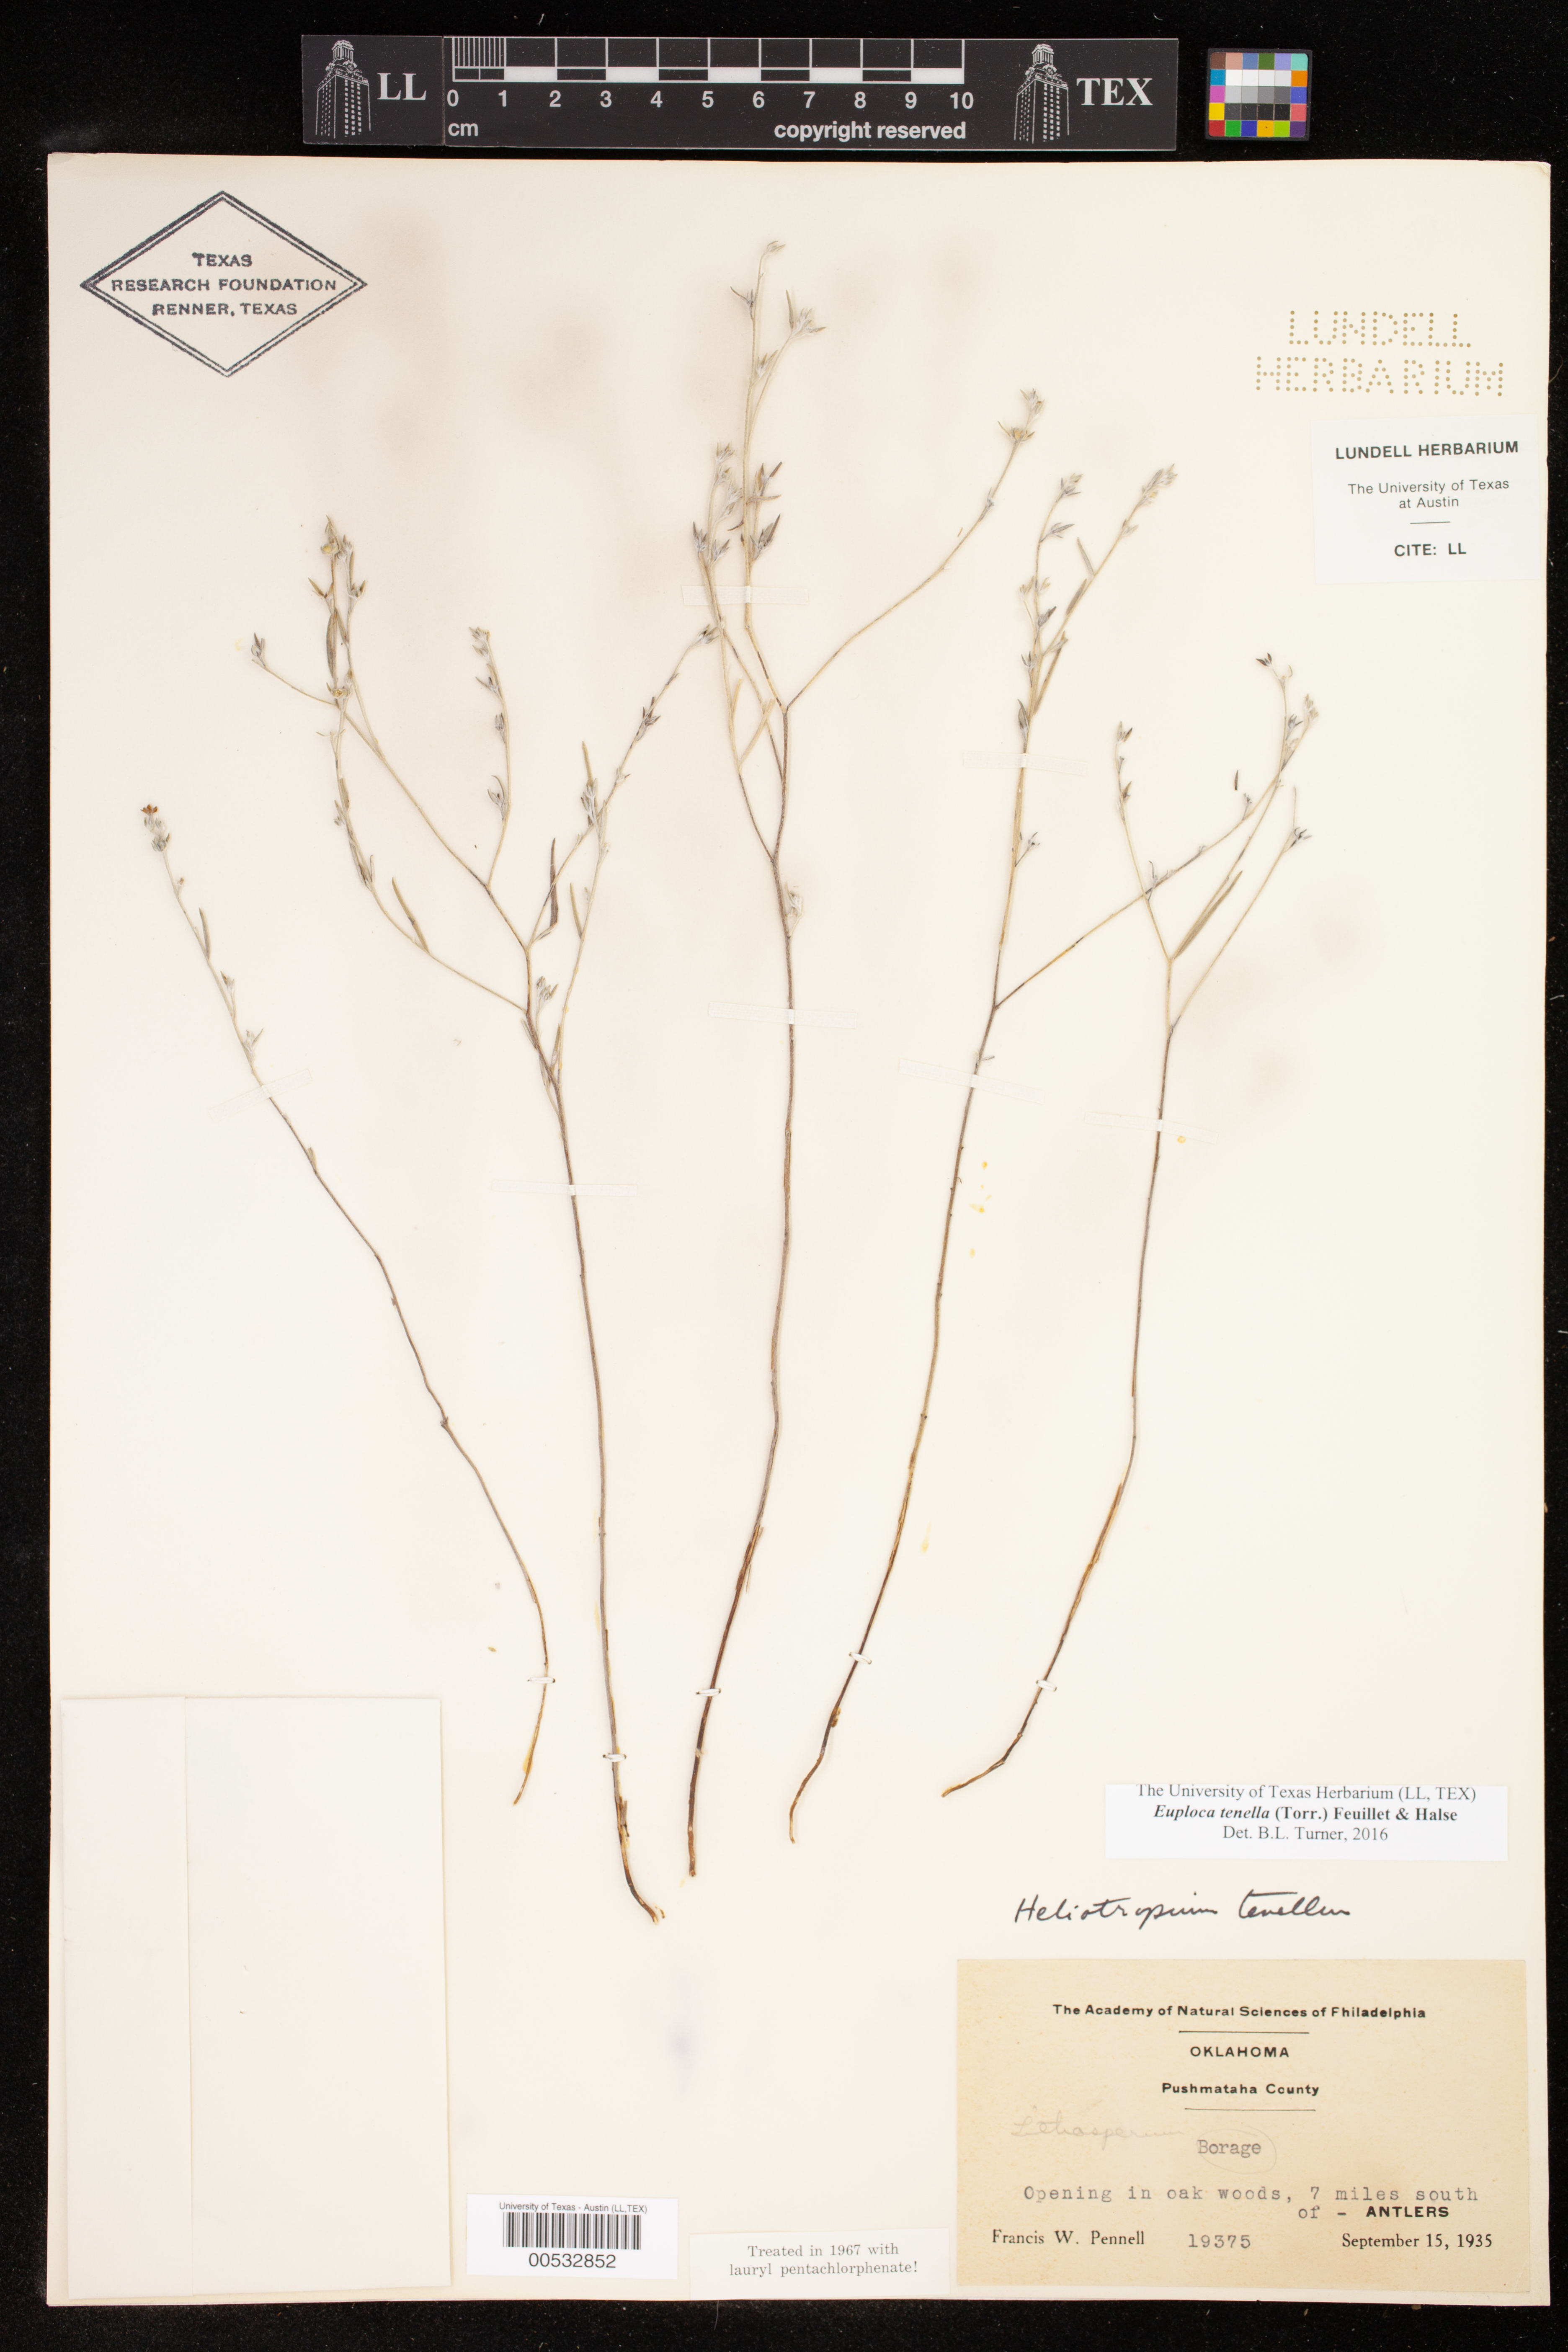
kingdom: Plantae
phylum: Tracheophyta
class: Magnoliopsida
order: Boraginales
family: Heliotropiaceae
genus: Euploca
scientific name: Euploca tenella
